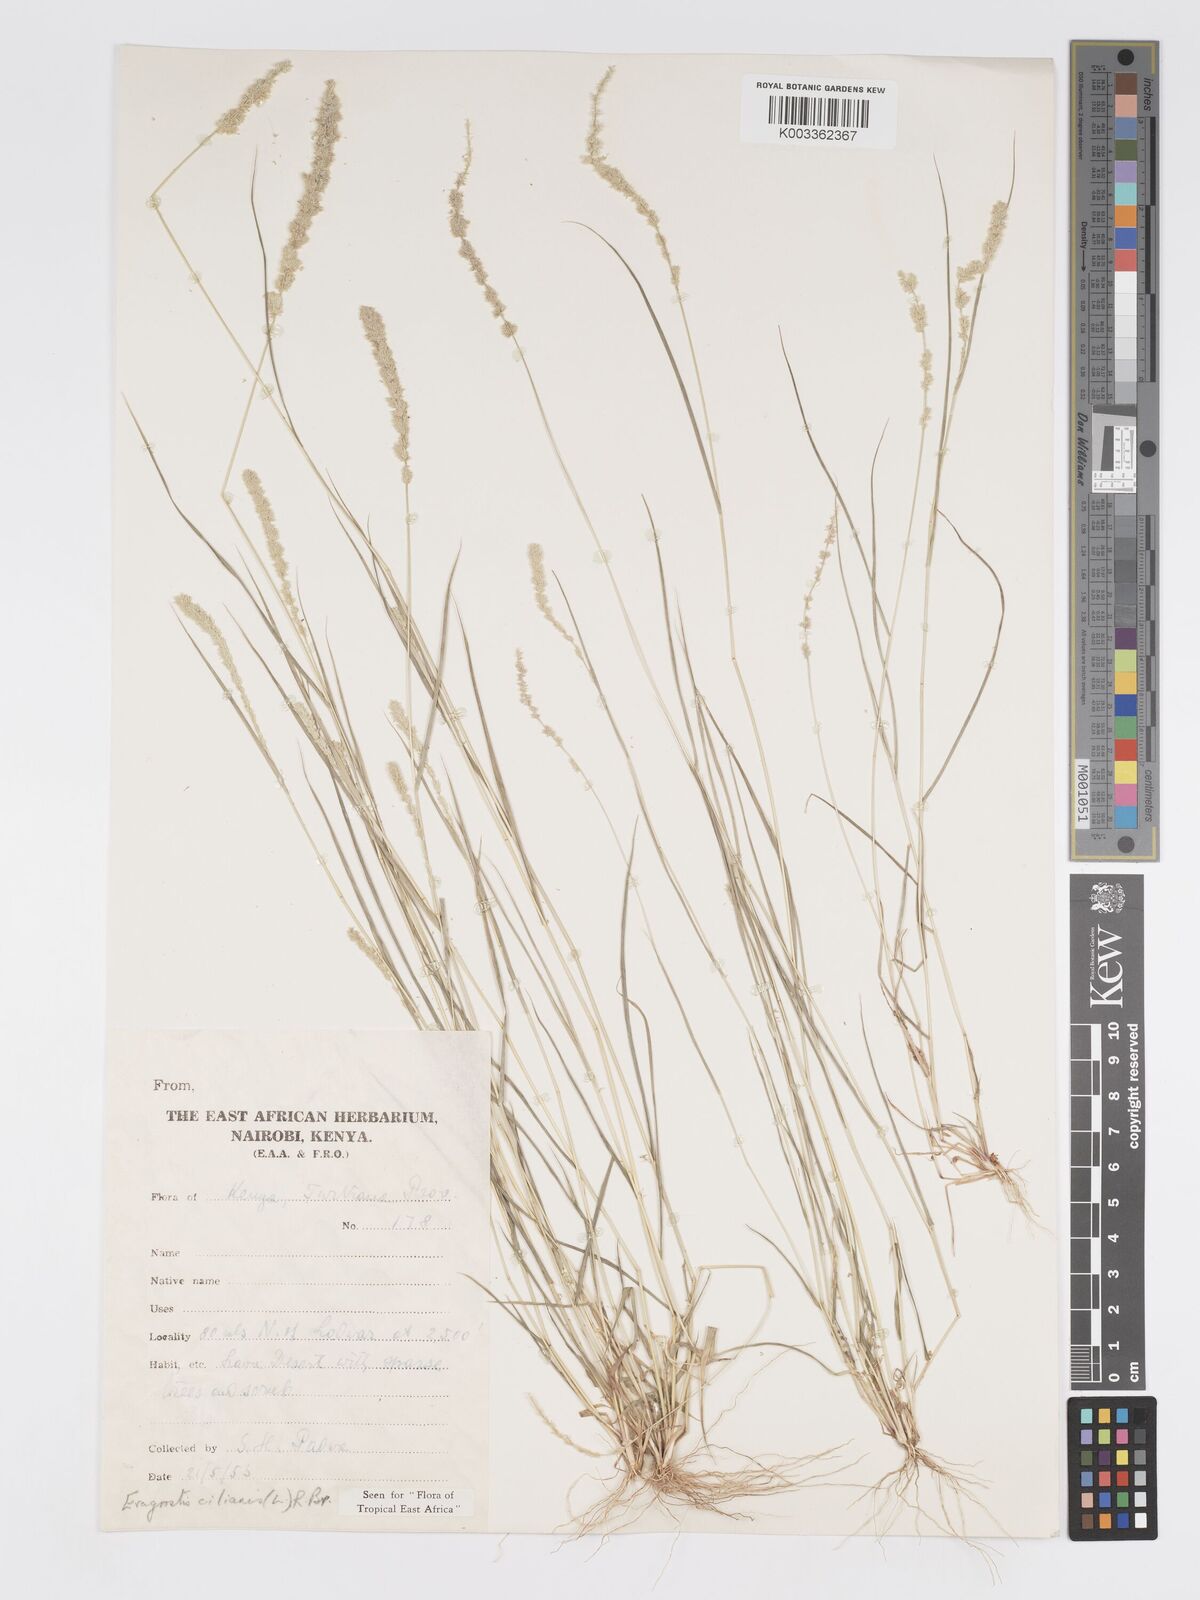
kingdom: Plantae
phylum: Tracheophyta
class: Liliopsida
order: Poales
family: Poaceae
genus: Eragrostis
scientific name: Eragrostis ciliaris
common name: Gophertail lovegrass
